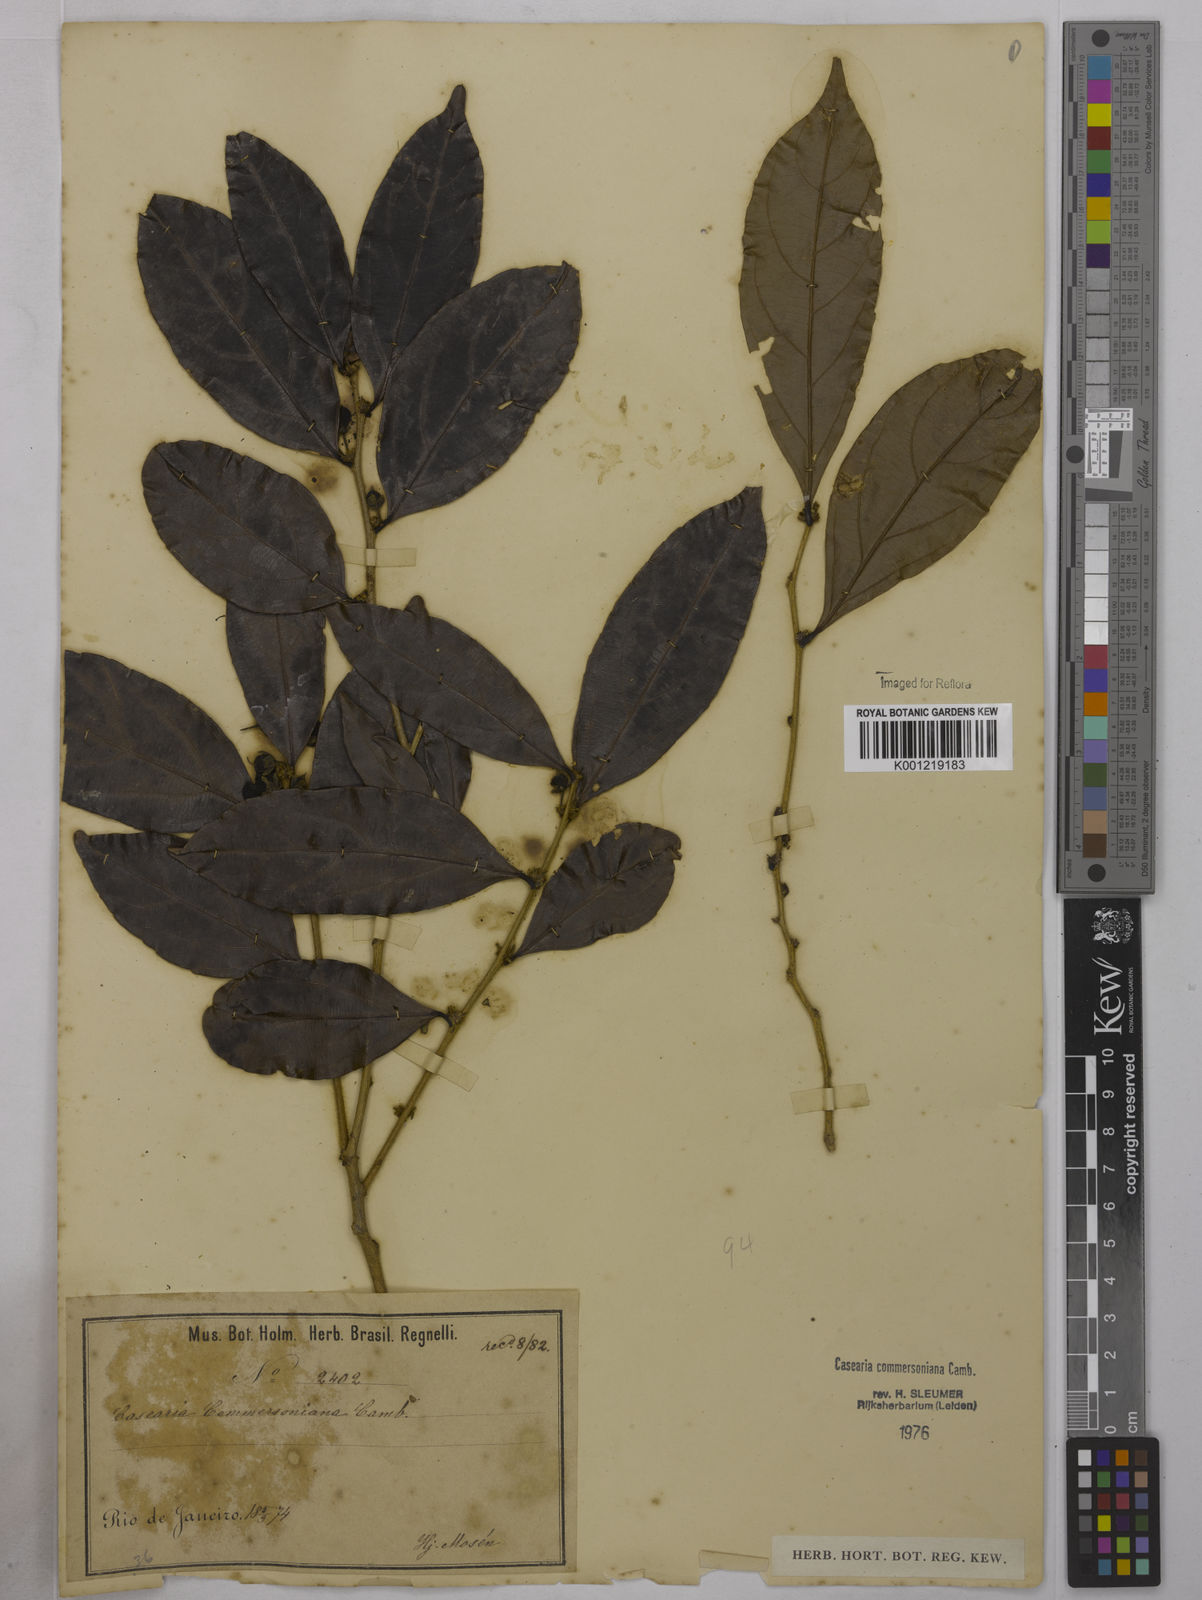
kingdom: Plantae
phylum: Tracheophyta
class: Magnoliopsida
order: Malpighiales
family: Salicaceae
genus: Piparea
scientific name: Piparea dentata
